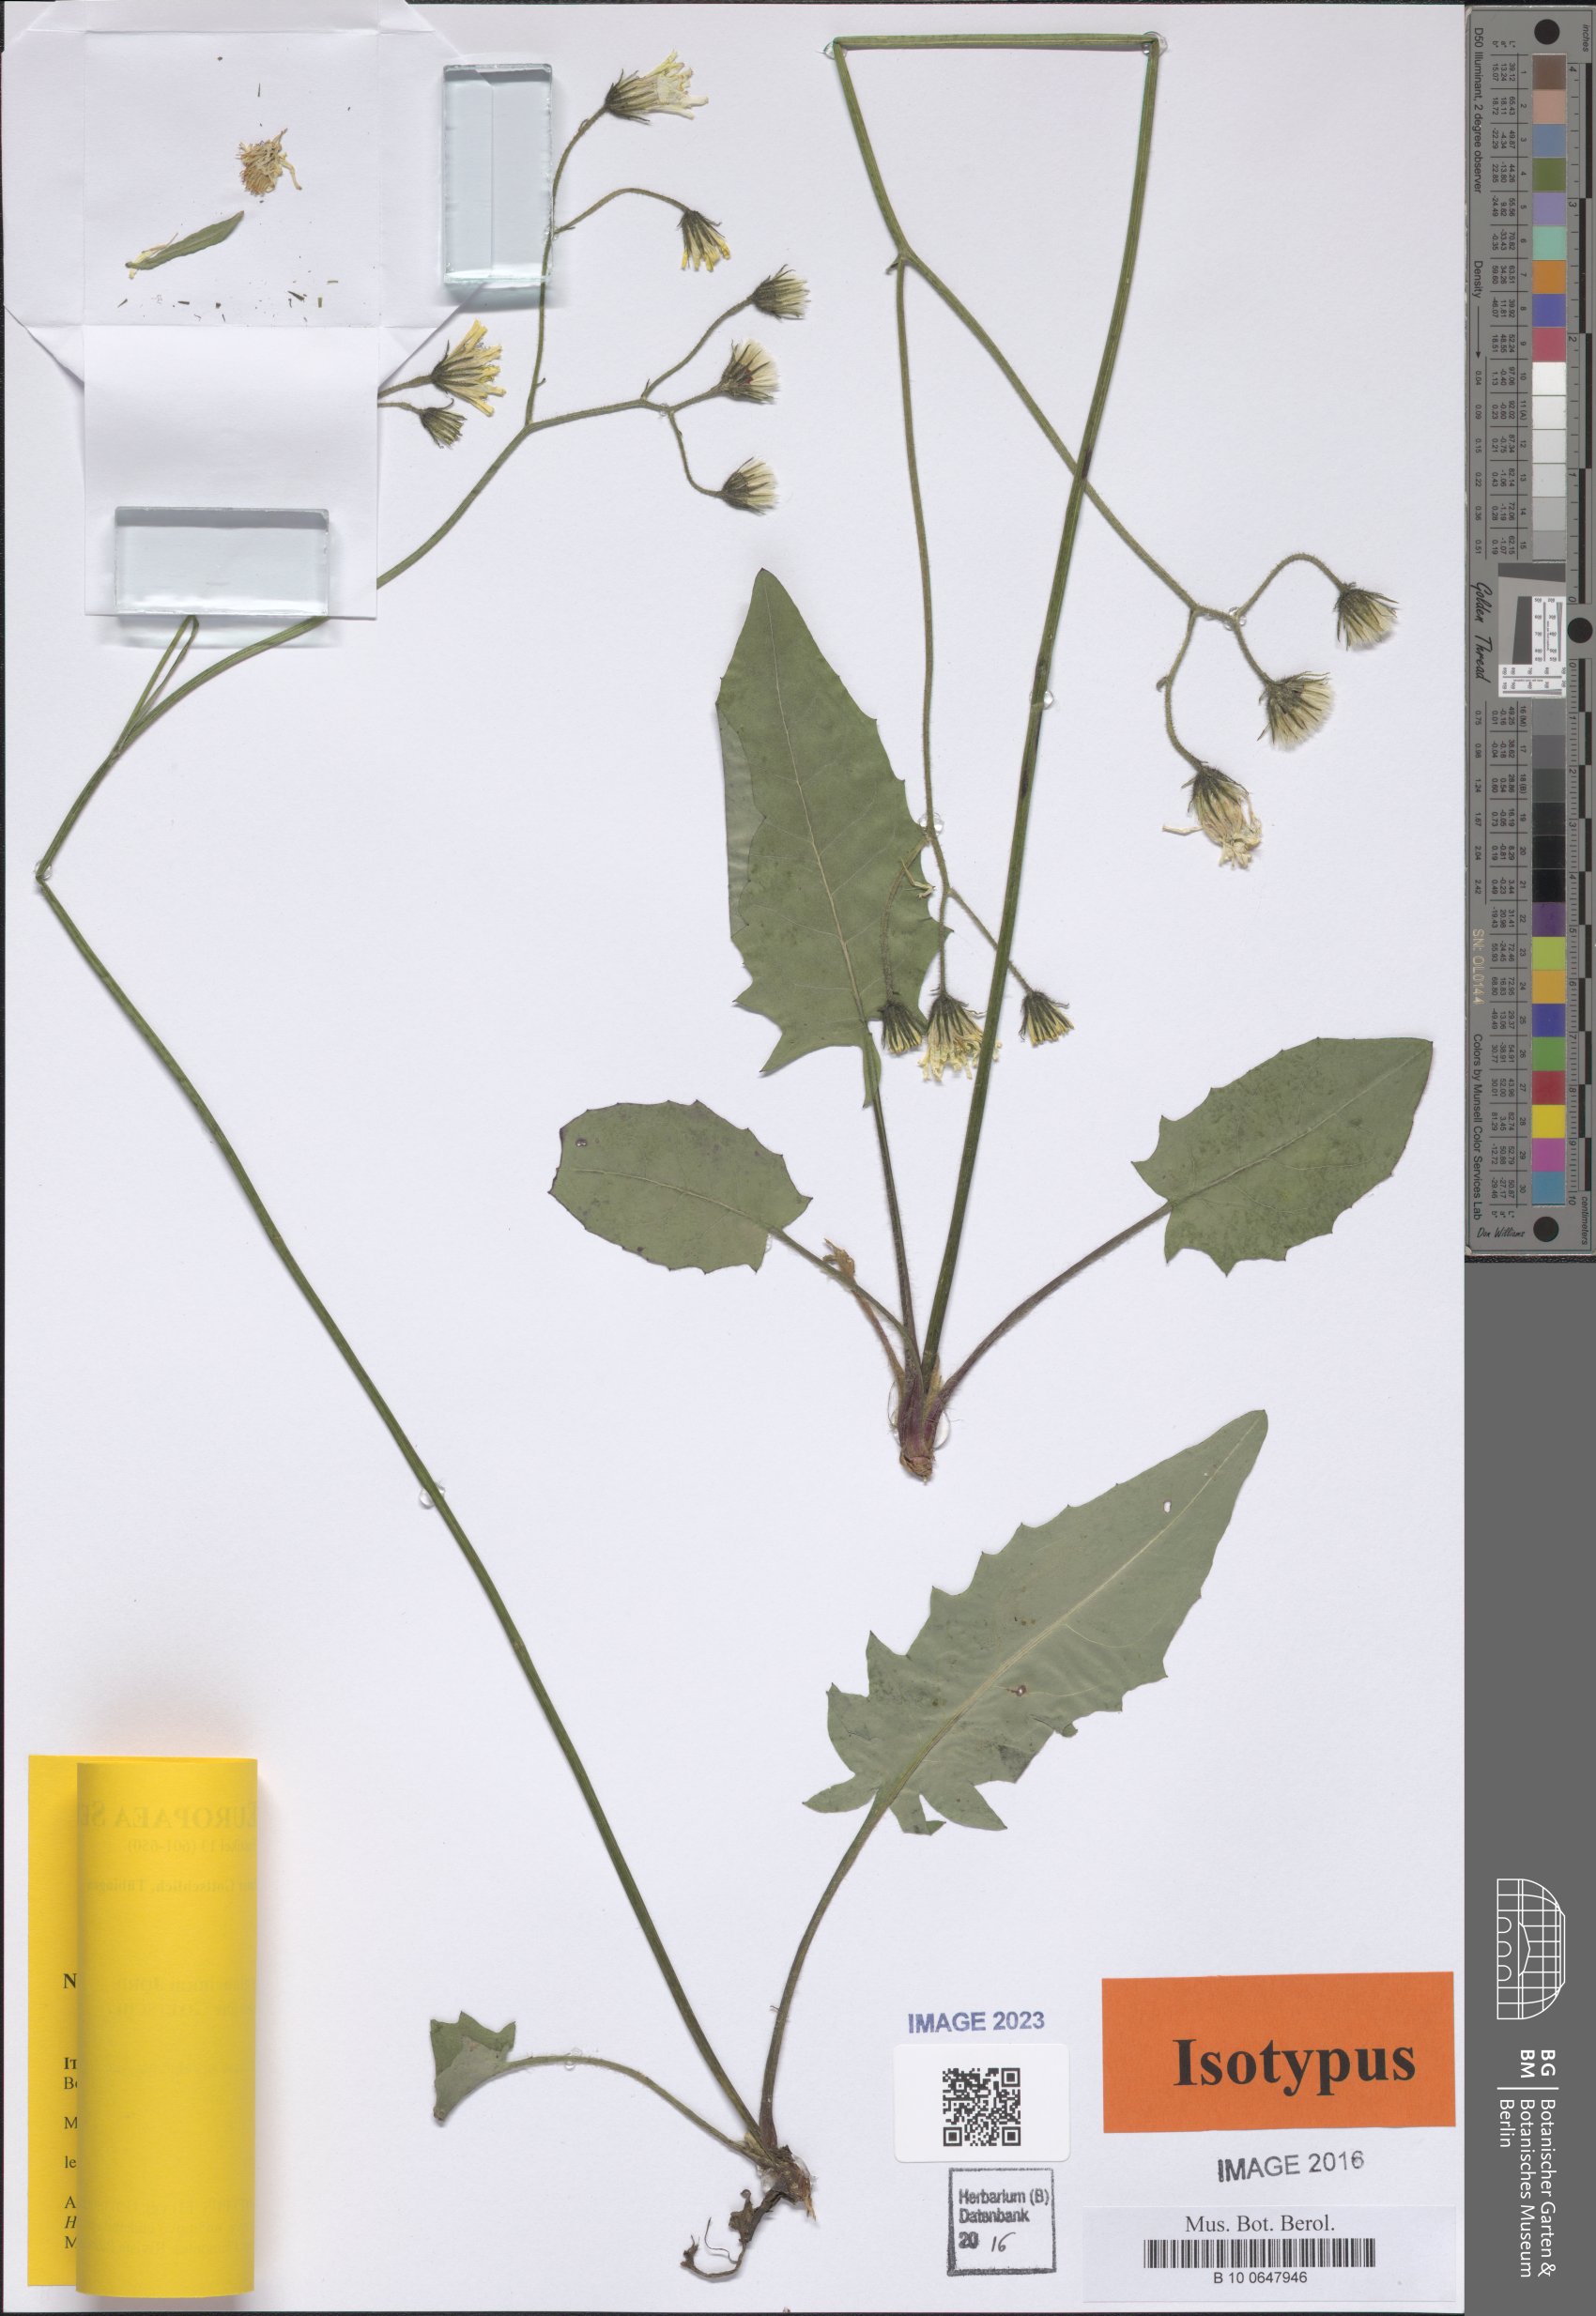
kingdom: Plantae
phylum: Tracheophyta
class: Magnoliopsida
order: Asterales
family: Asteraceae
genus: Hieracium
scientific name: Hieracium glaucinum
